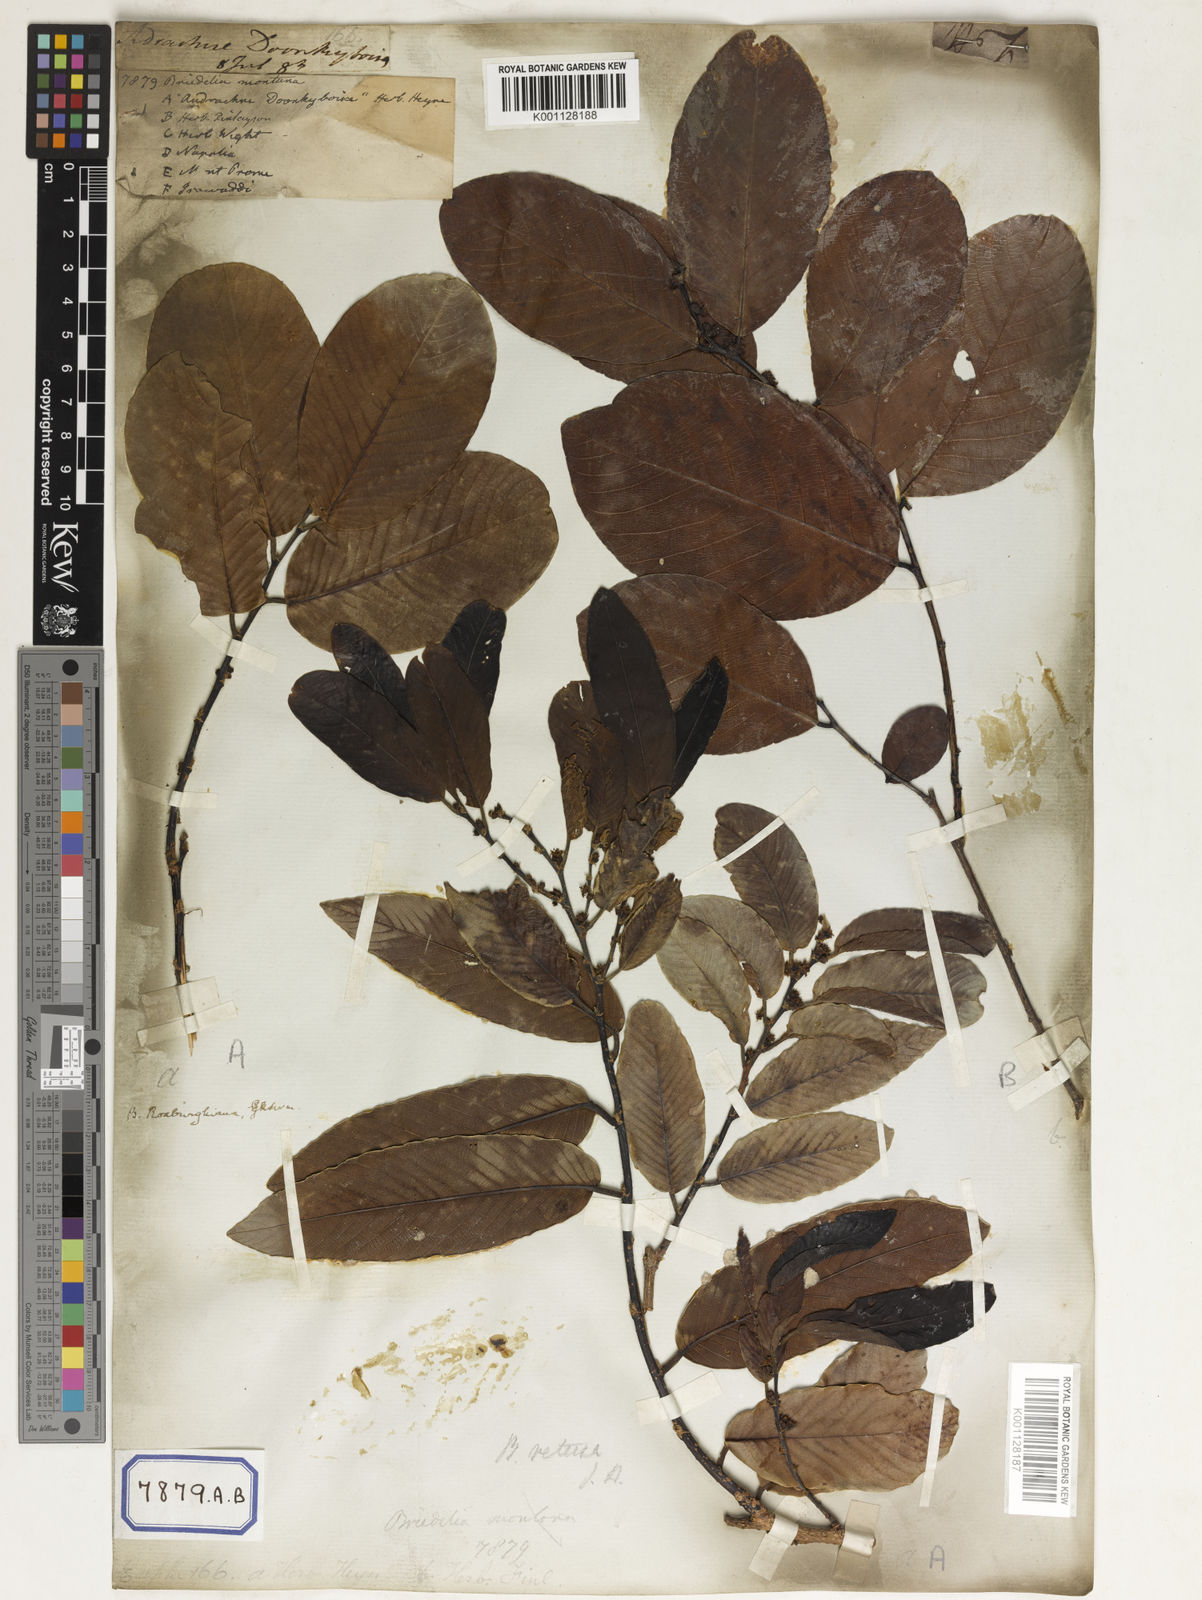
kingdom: Plantae
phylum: Tracheophyta
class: Magnoliopsida
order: Malpighiales
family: Phyllanthaceae
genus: Bridelia
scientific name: Bridelia montana
